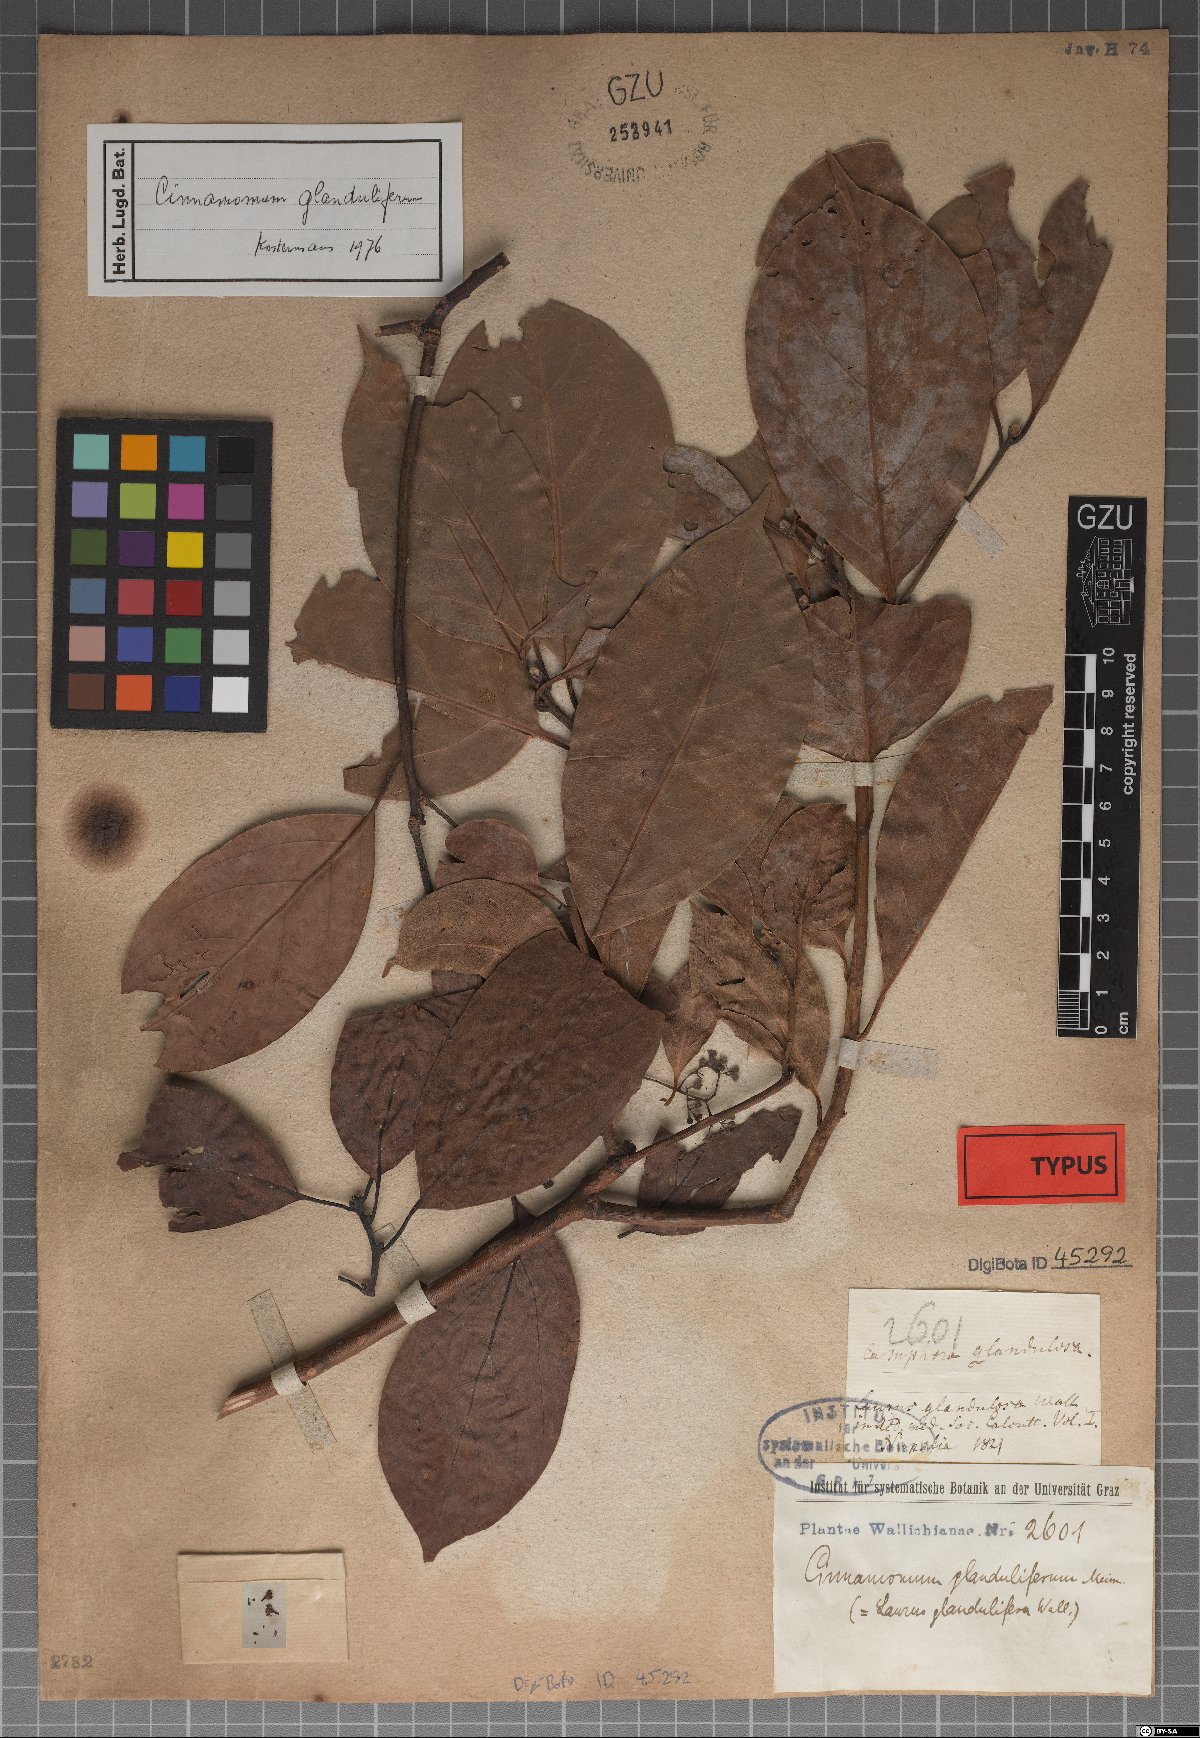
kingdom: Plantae
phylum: Tracheophyta
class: Magnoliopsida
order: Laurales
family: Lauraceae
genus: Cinnamomum
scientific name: Cinnamomum glanduliferum
